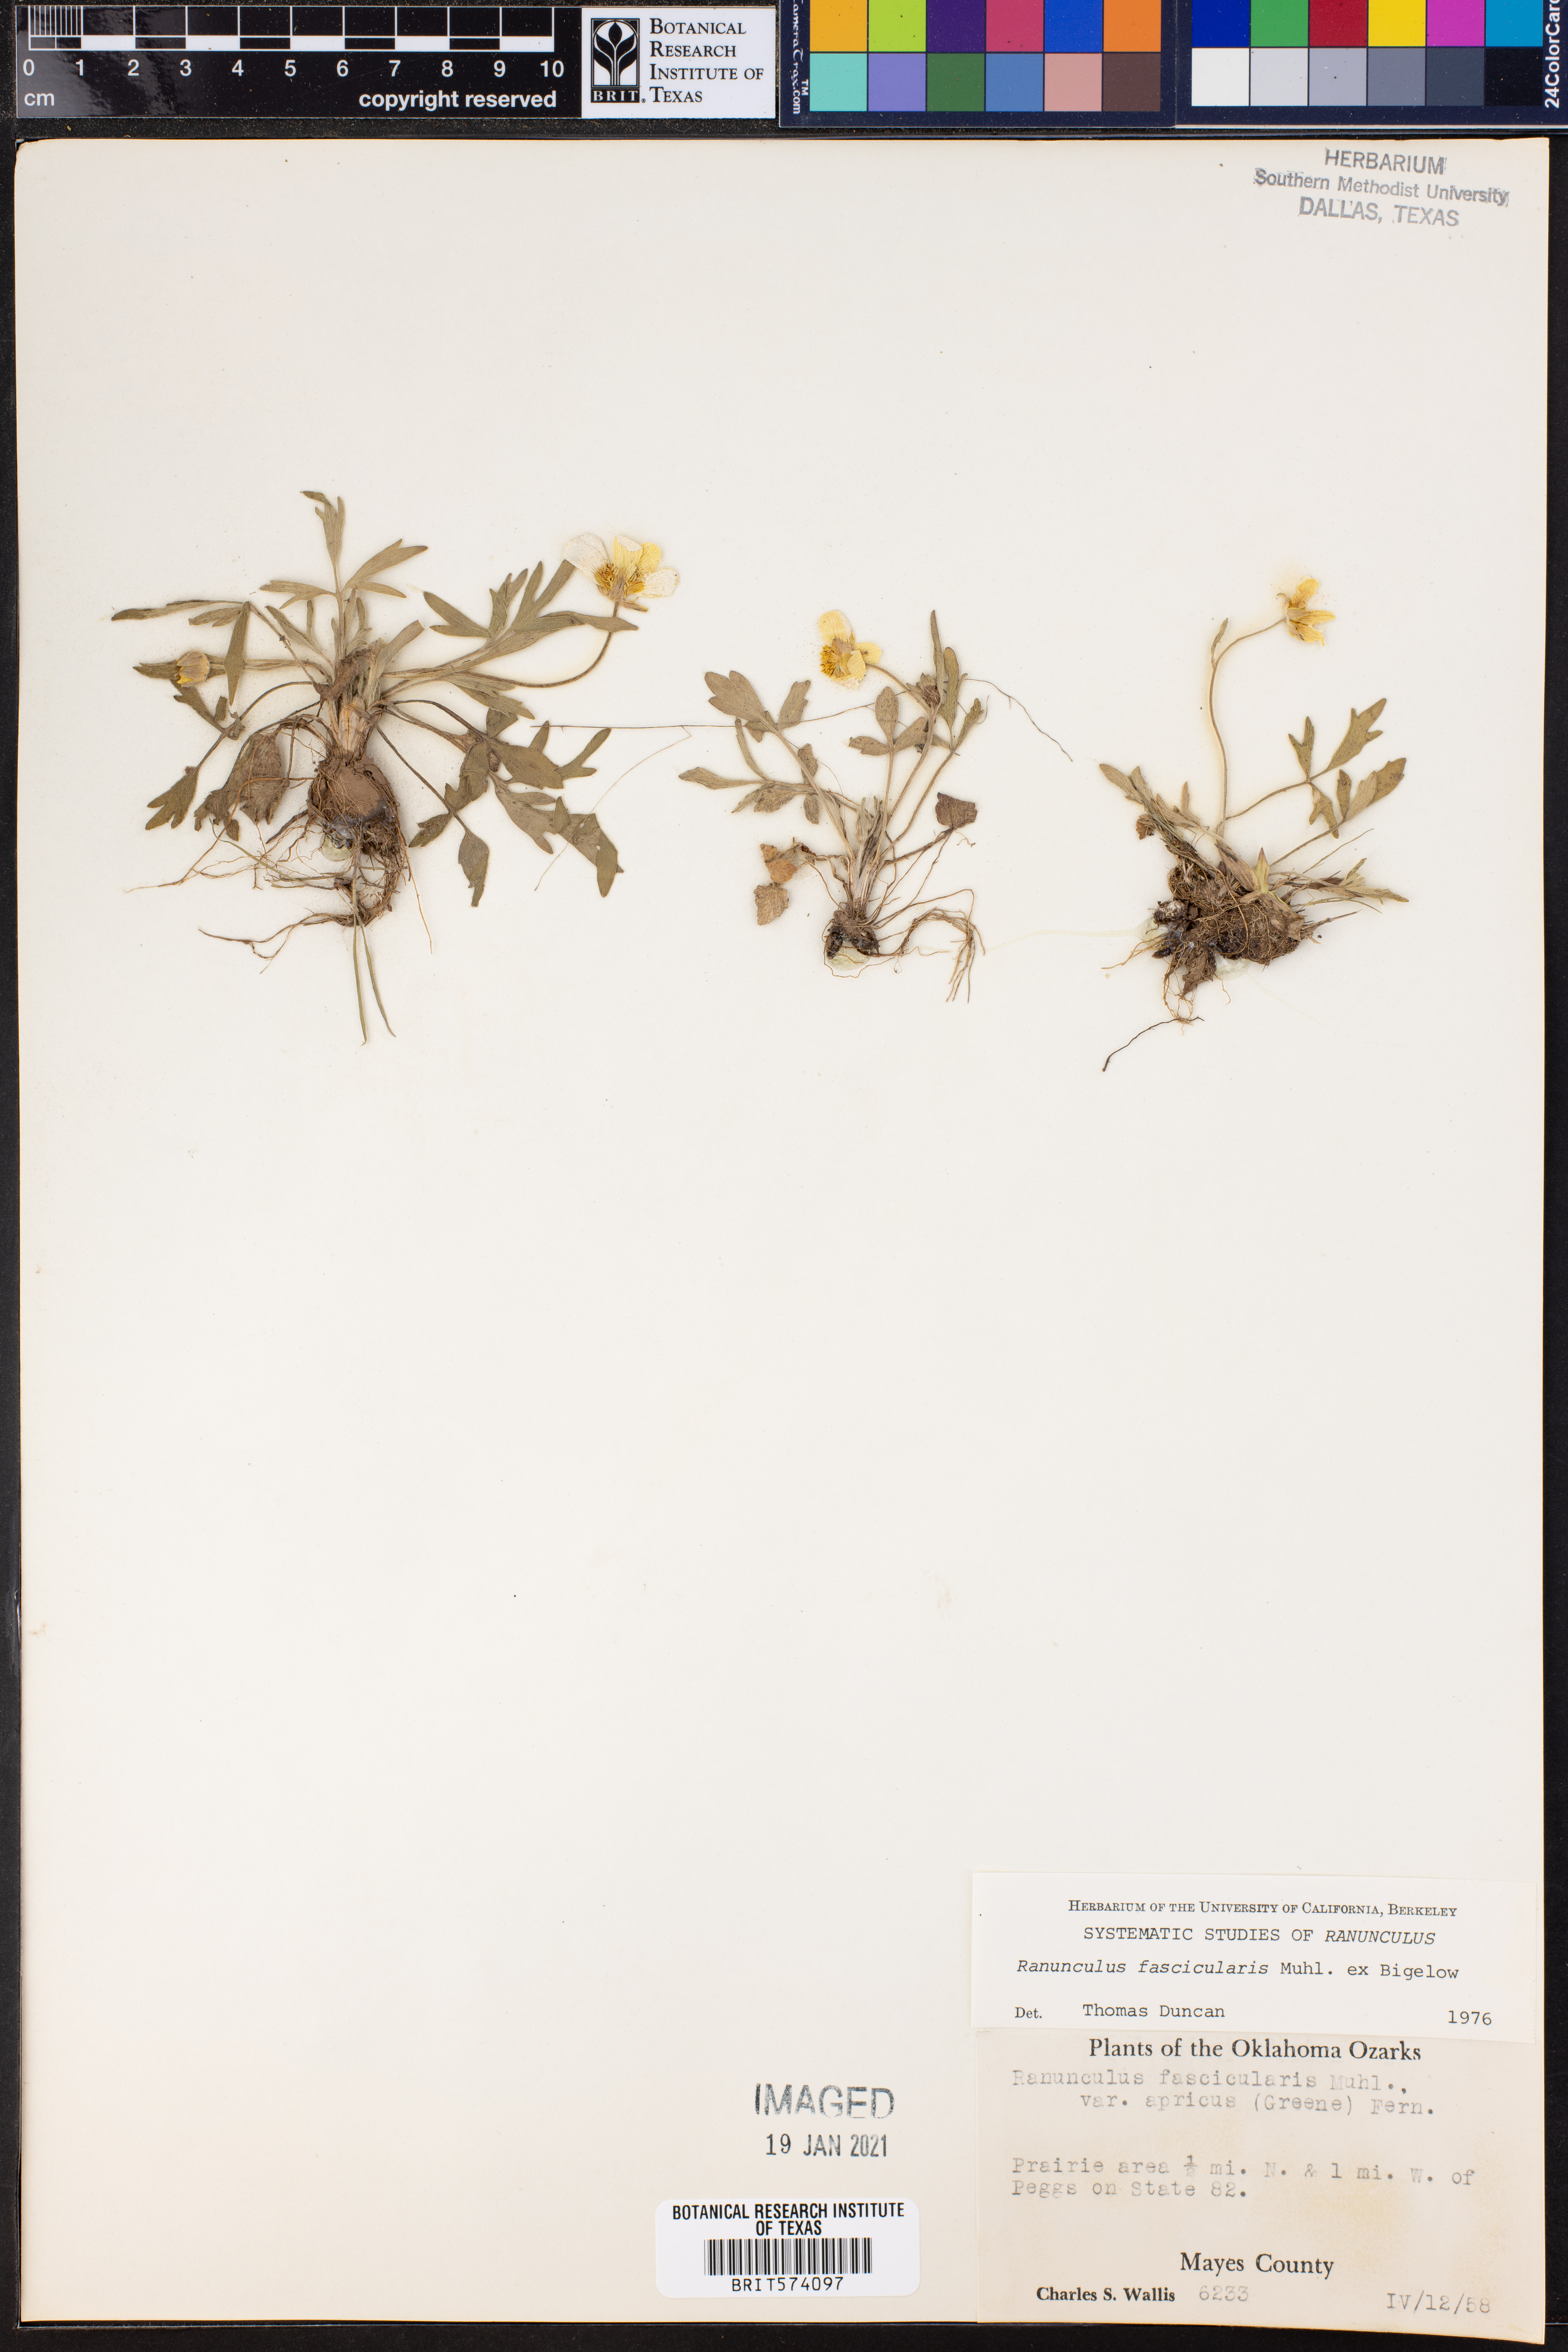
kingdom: Plantae
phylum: Tracheophyta
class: Magnoliopsida
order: Ranunculales
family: Ranunculaceae
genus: Ranunculus
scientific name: Ranunculus fascicularis
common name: Early buttercup
